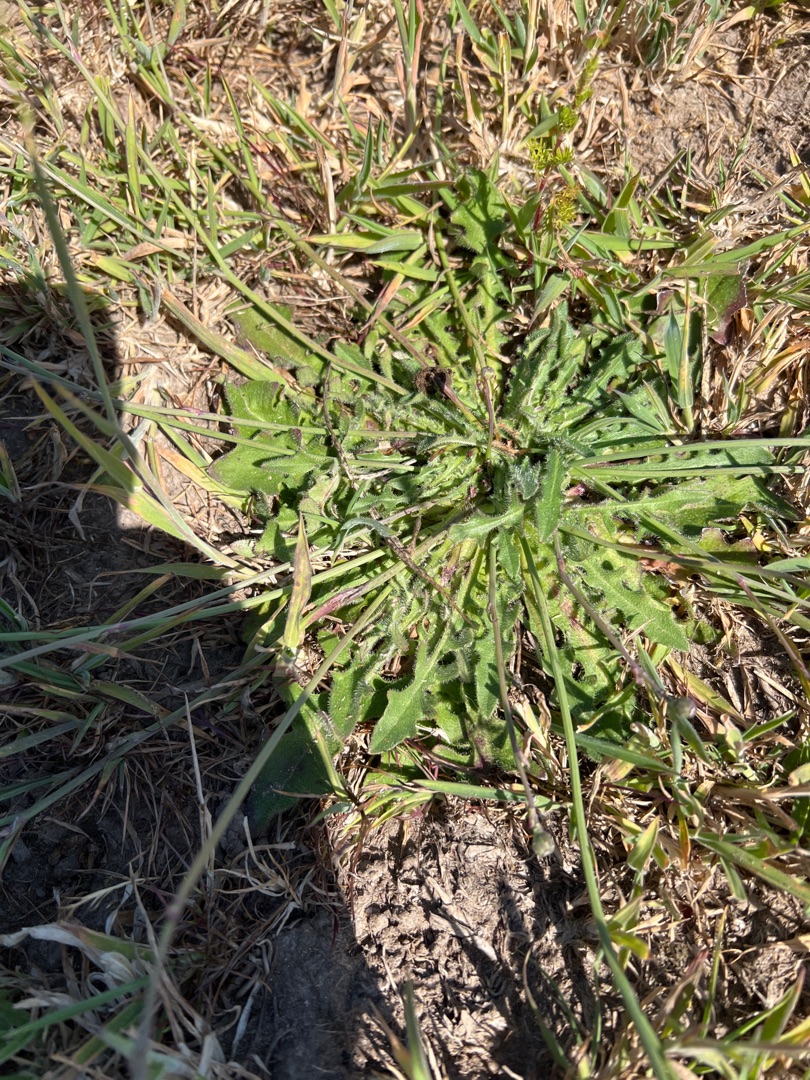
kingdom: Plantae
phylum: Tracheophyta
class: Magnoliopsida
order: Asterales
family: Asteraceae
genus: Hypochaeris
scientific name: Hypochaeris radicata
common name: Almindelig kongepen
